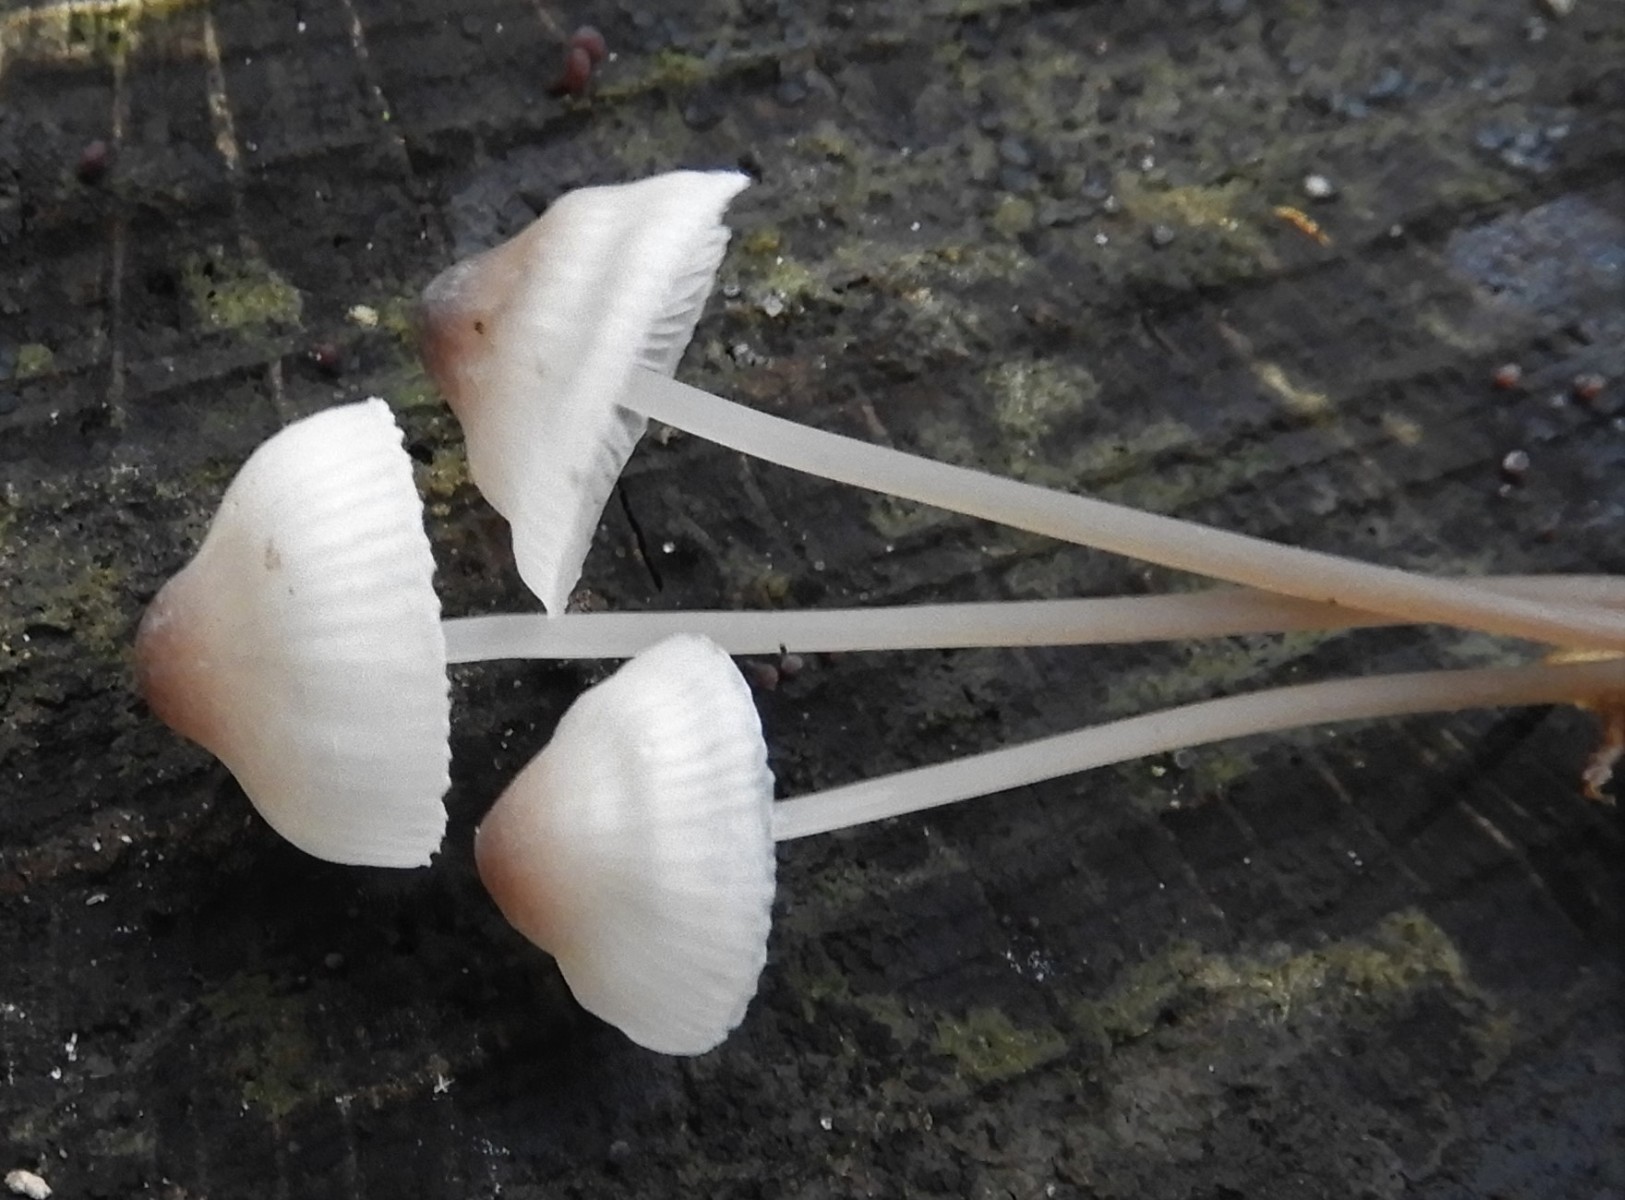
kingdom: Fungi
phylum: Basidiomycota
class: Agaricomycetes
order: Agaricales
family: Mycenaceae
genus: Mycena
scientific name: Mycena
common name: huesvamp
